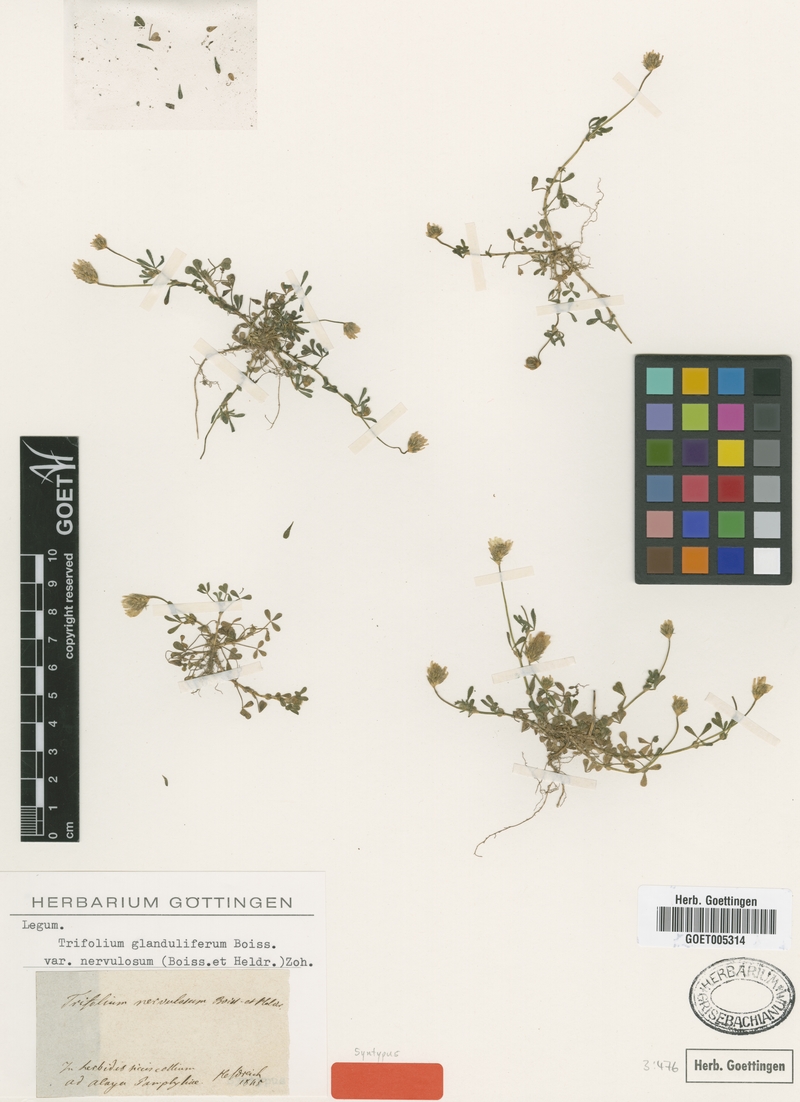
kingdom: Plantae
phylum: Tracheophyta
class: Magnoliopsida
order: Fabales
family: Fabaceae
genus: Trifolium
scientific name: Trifolium glanduliferum
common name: Glandular clover
